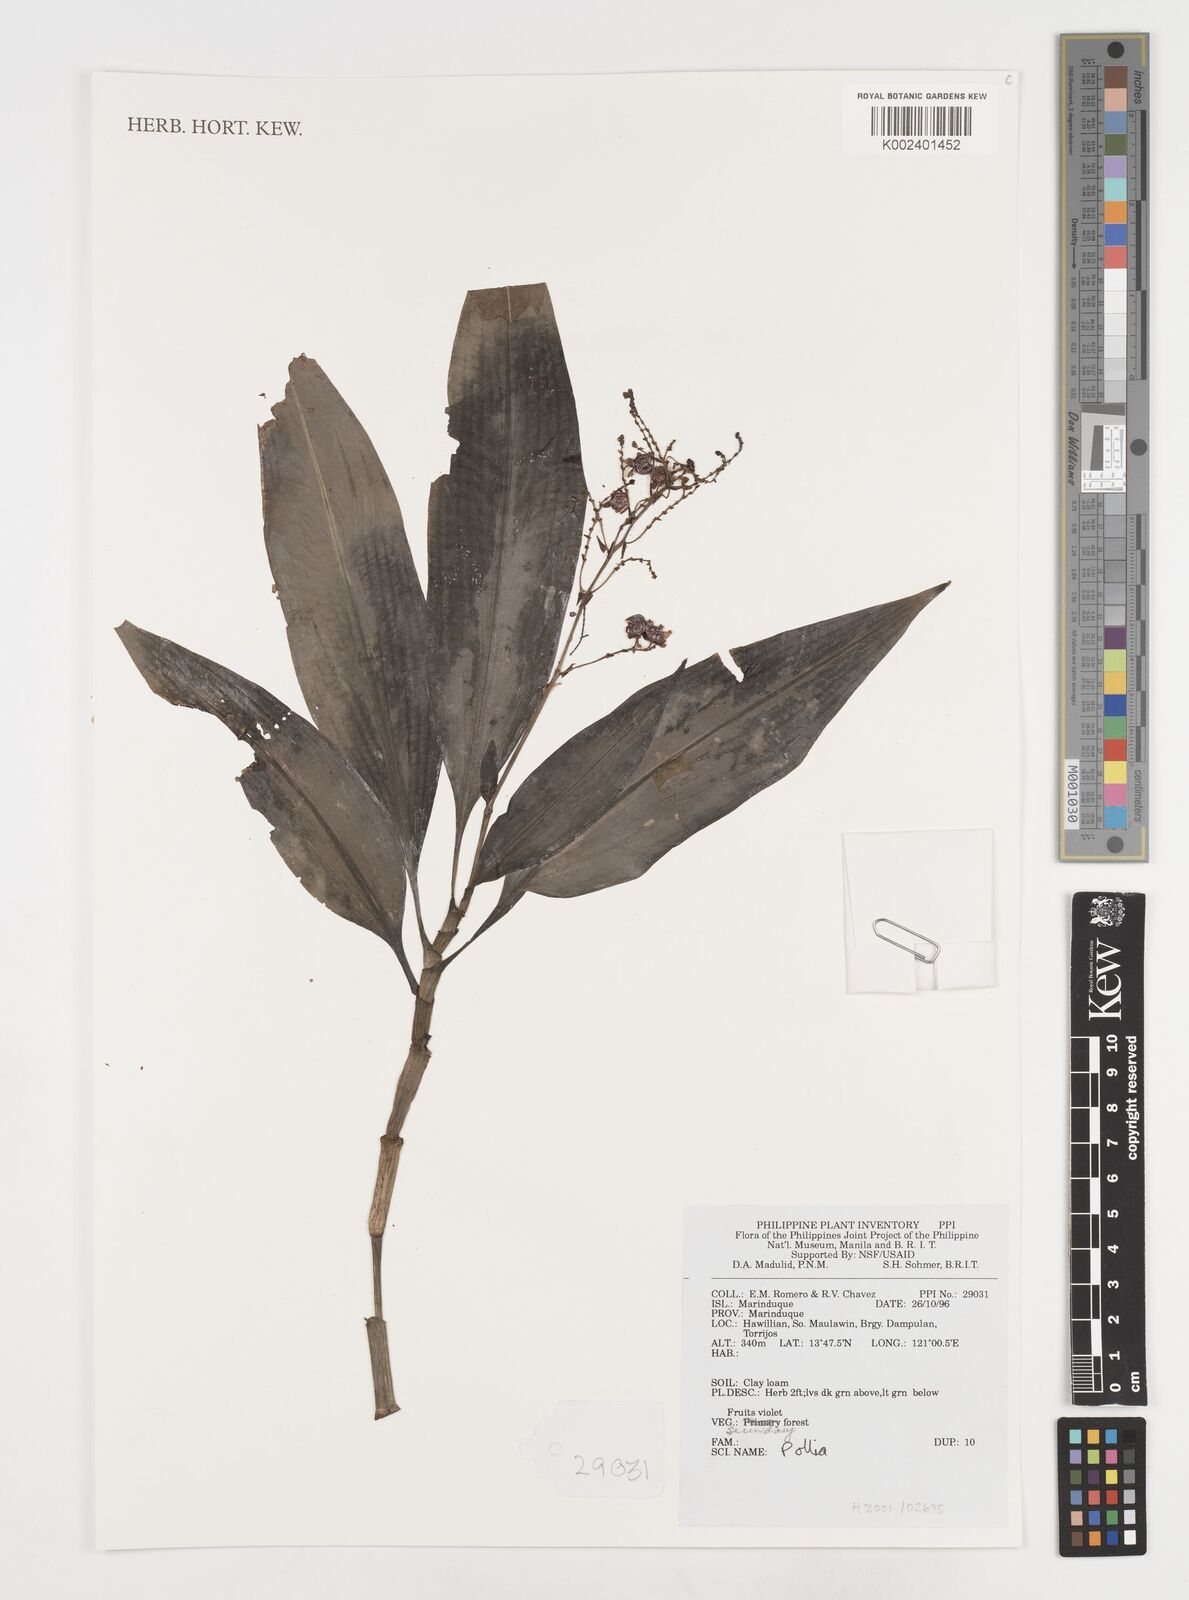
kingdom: Plantae
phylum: Tracheophyta
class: Liliopsida
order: Commelinales
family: Commelinaceae
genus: Pollia
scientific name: Pollia
